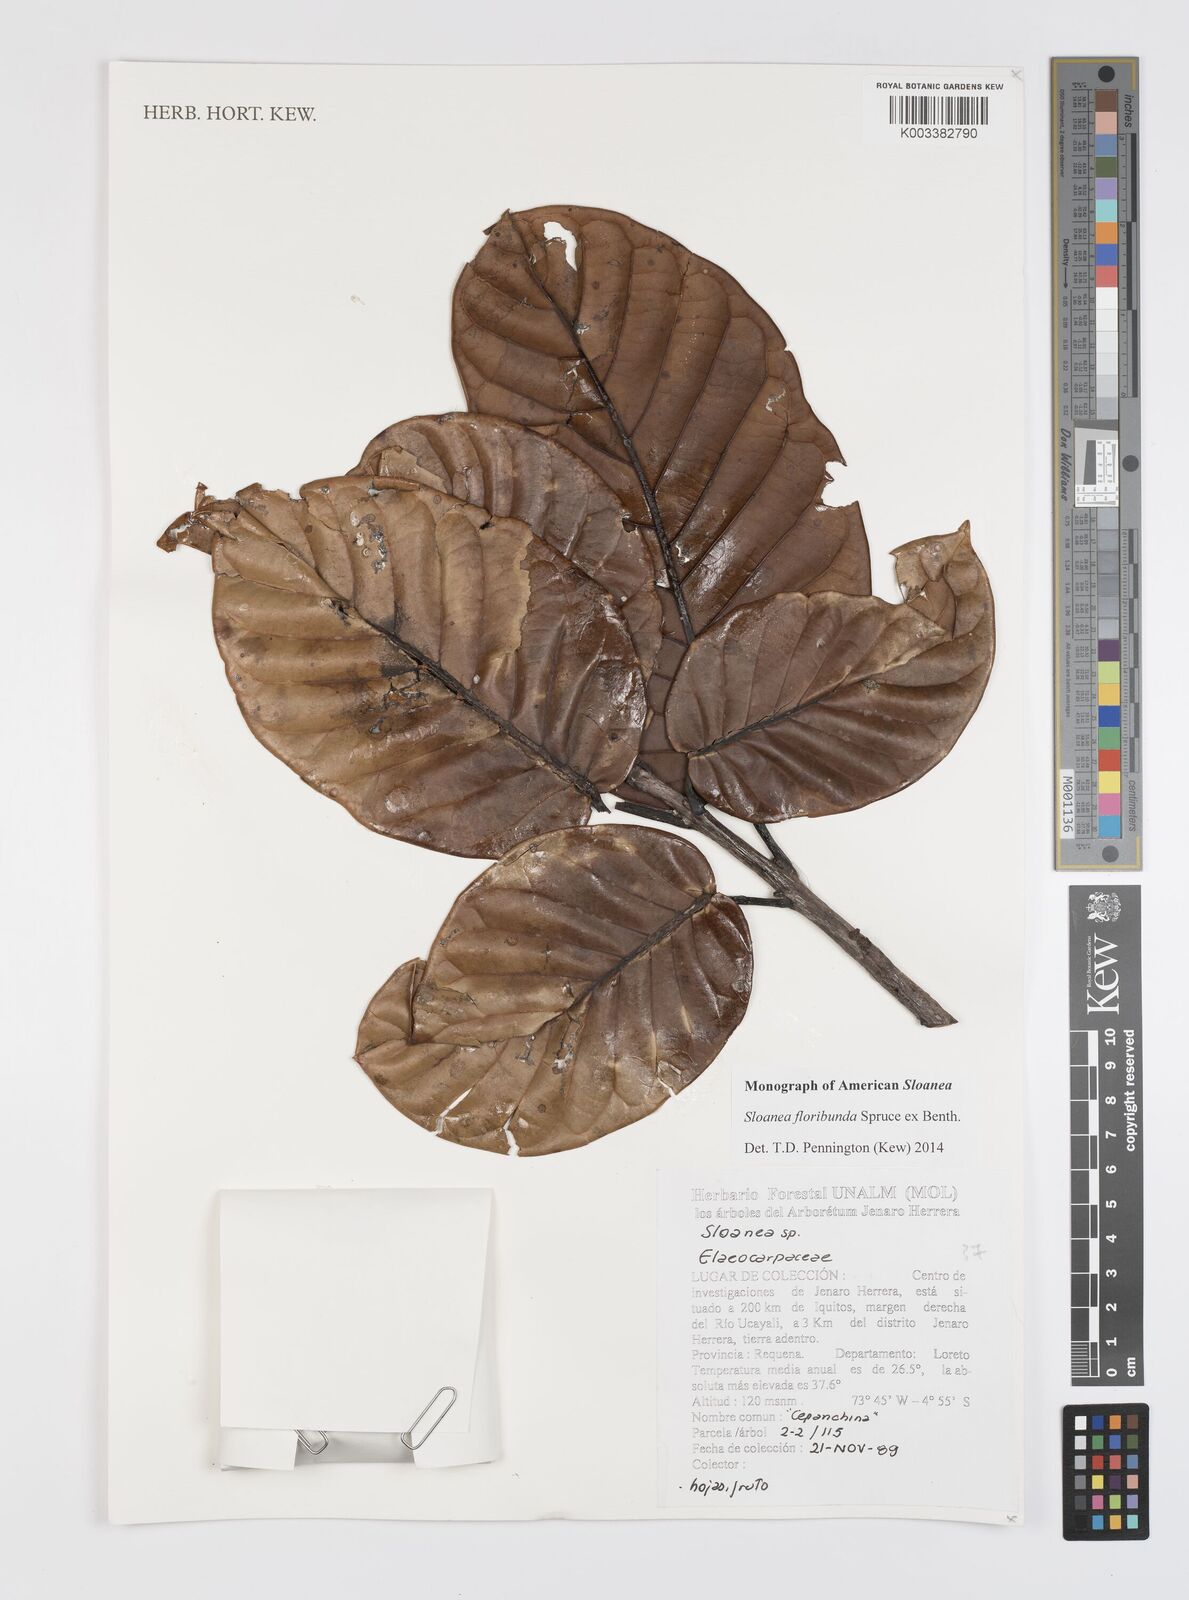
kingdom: Plantae
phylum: Tracheophyta
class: Magnoliopsida
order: Oxalidales
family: Elaeocarpaceae
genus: Sloanea
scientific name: Sloanea floribunda
